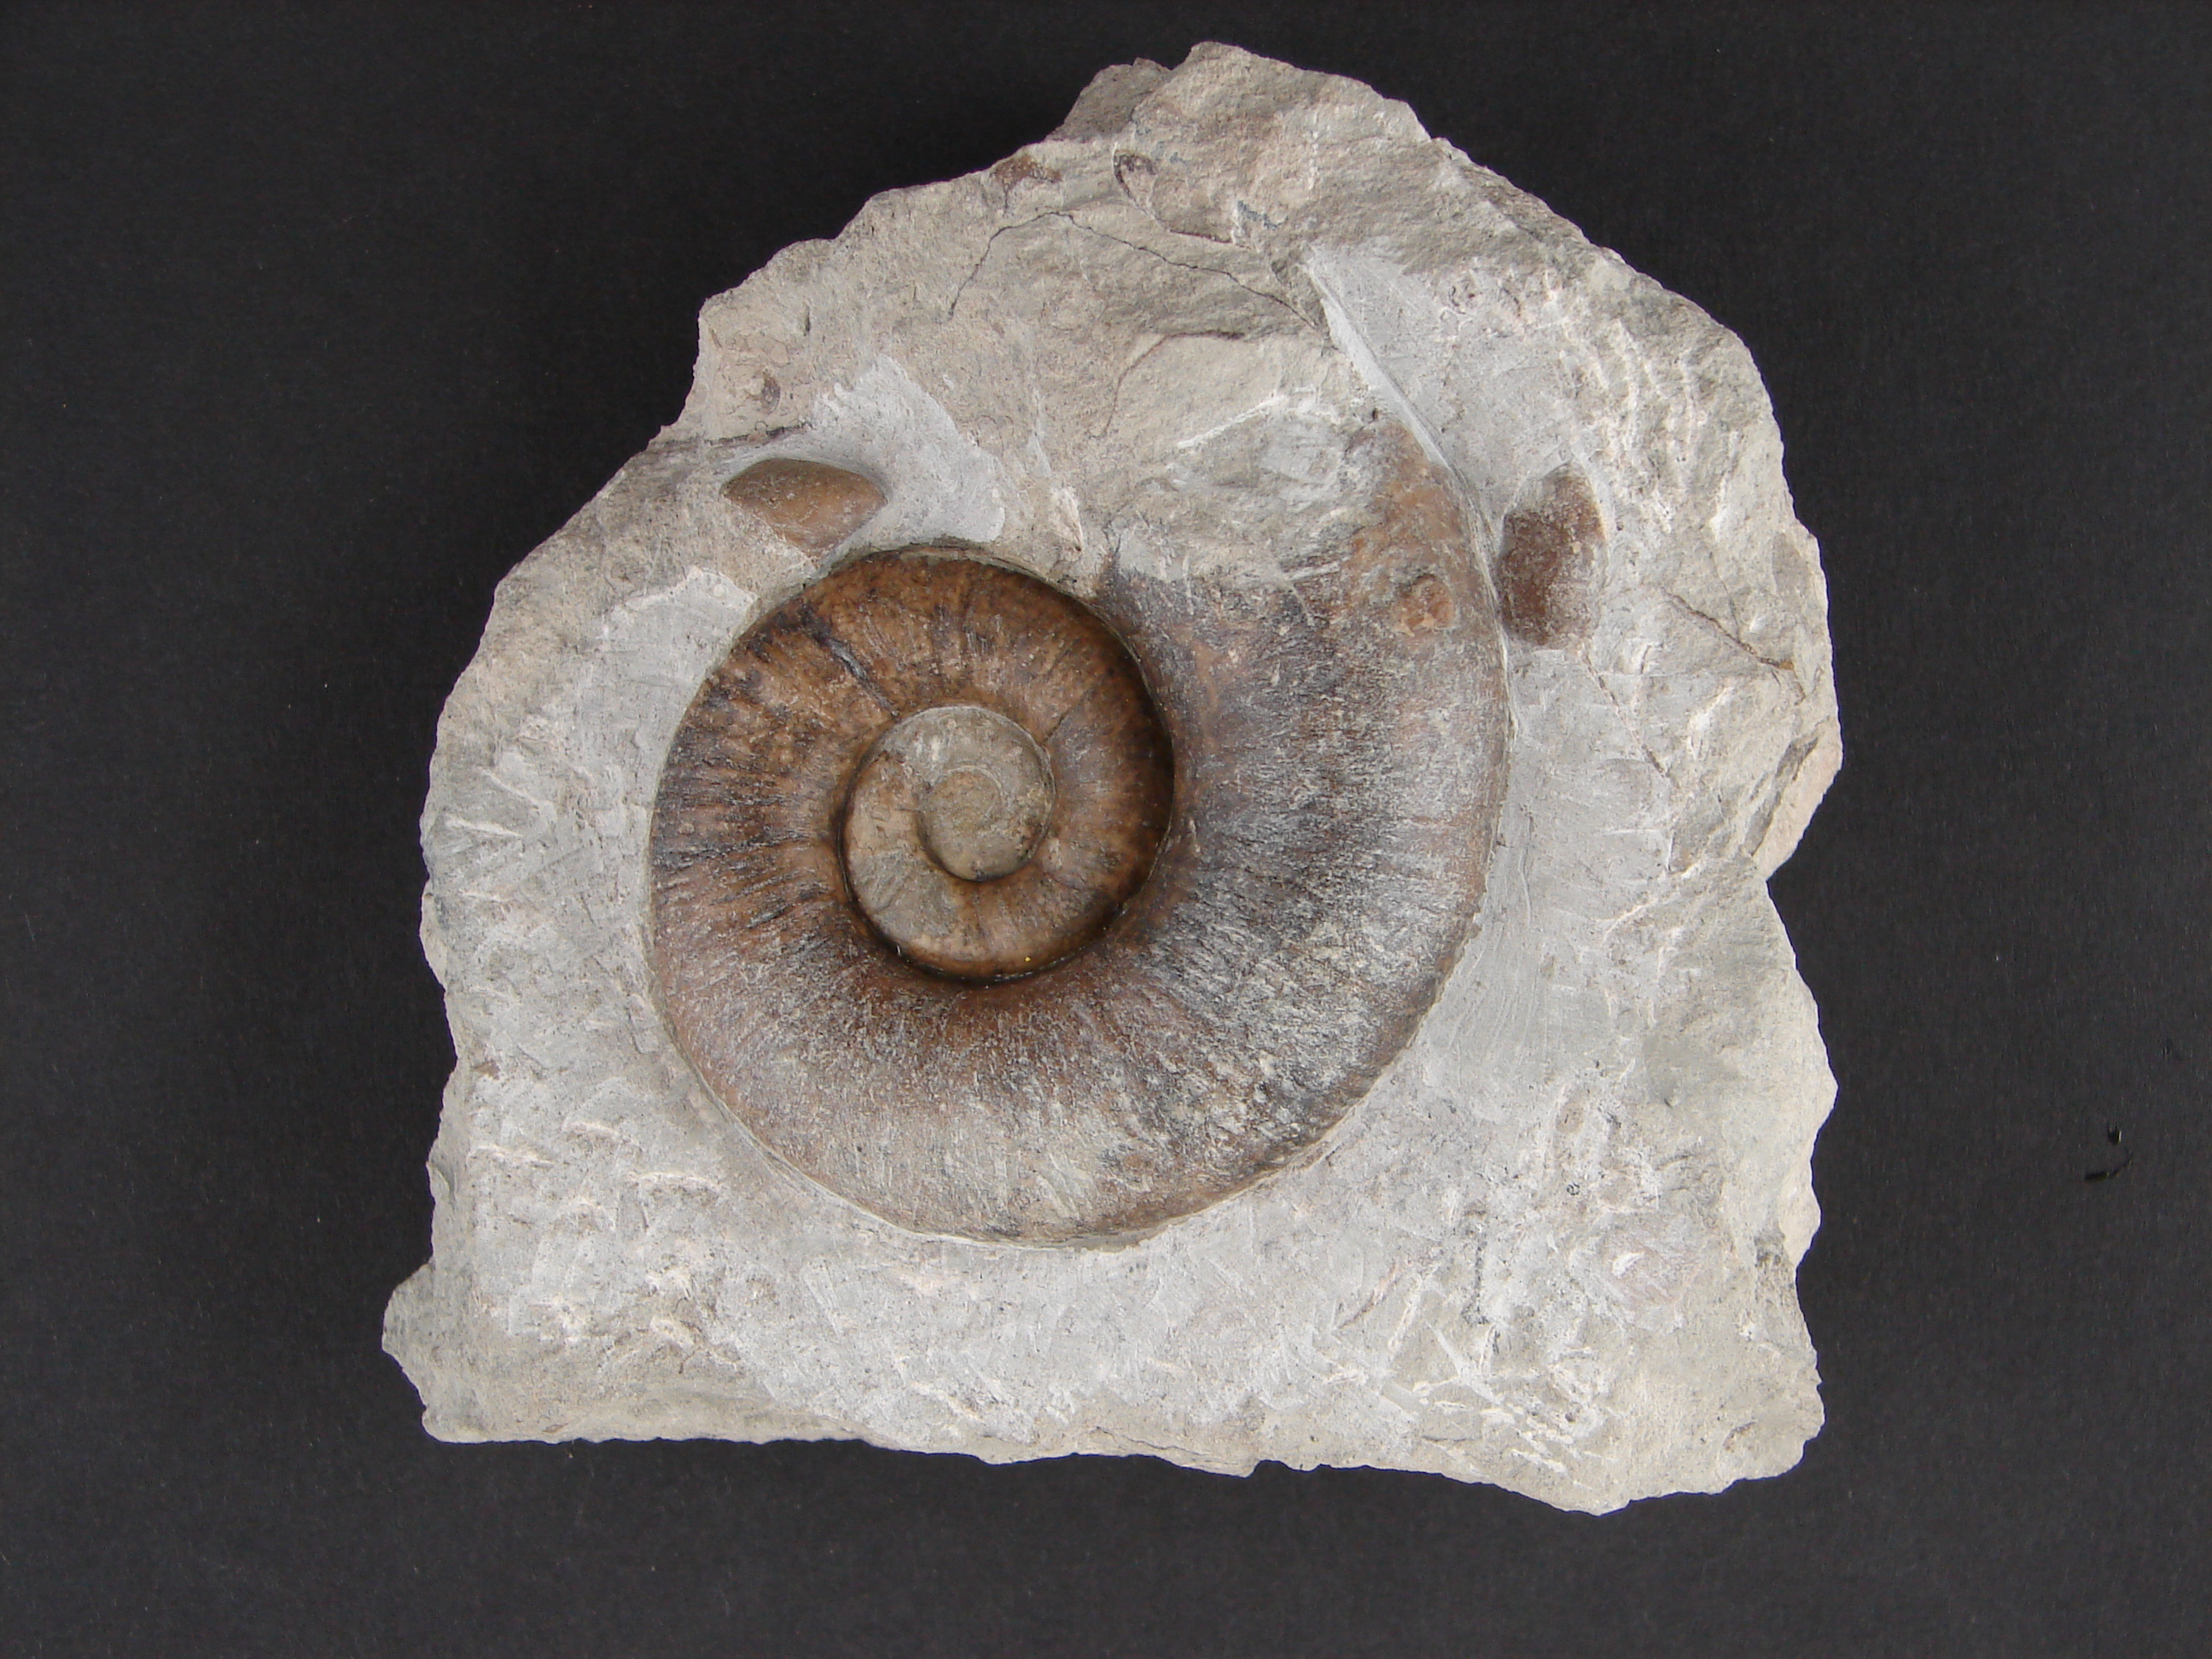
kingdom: Animalia
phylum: Mollusca
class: Cephalopoda
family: Lytoceratidae
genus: Lytoceras
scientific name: Lytoceras fimbriatum
